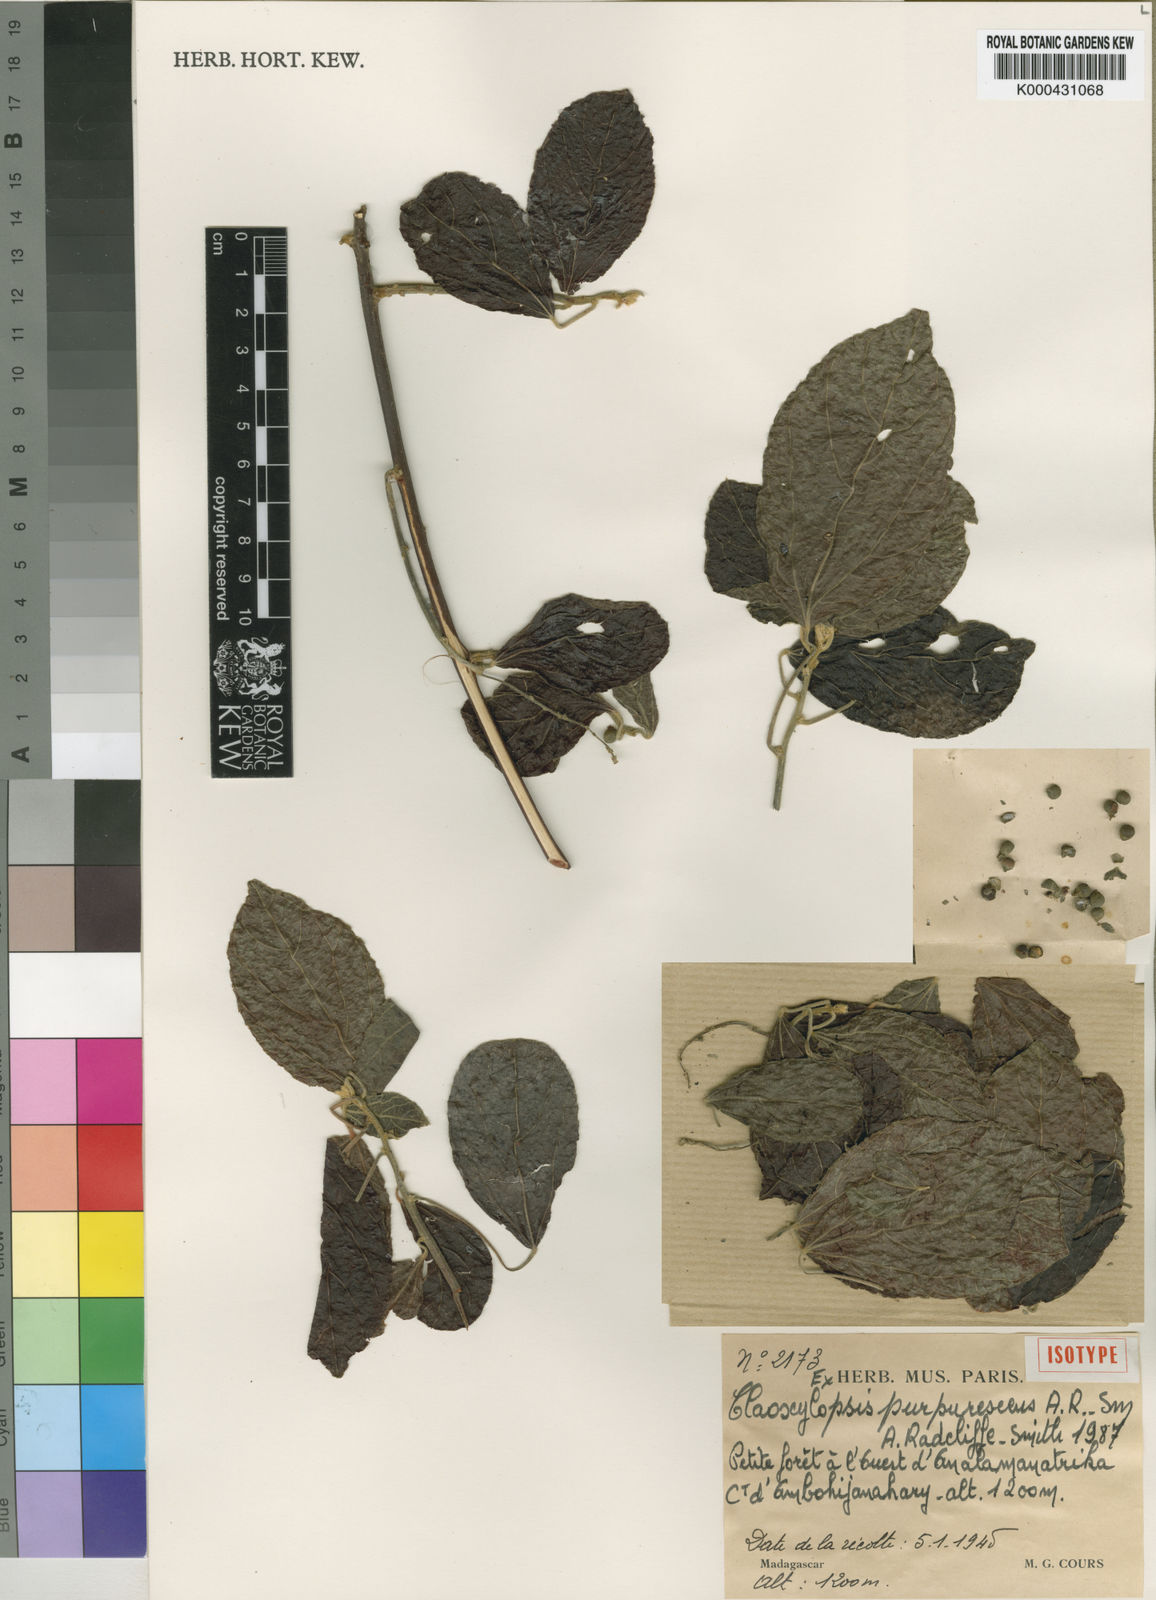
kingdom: Plantae
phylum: Tracheophyta
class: Magnoliopsida
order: Malpighiales
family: Euphorbiaceae
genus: Claoxylopsis
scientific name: Claoxylopsis purpurascens
